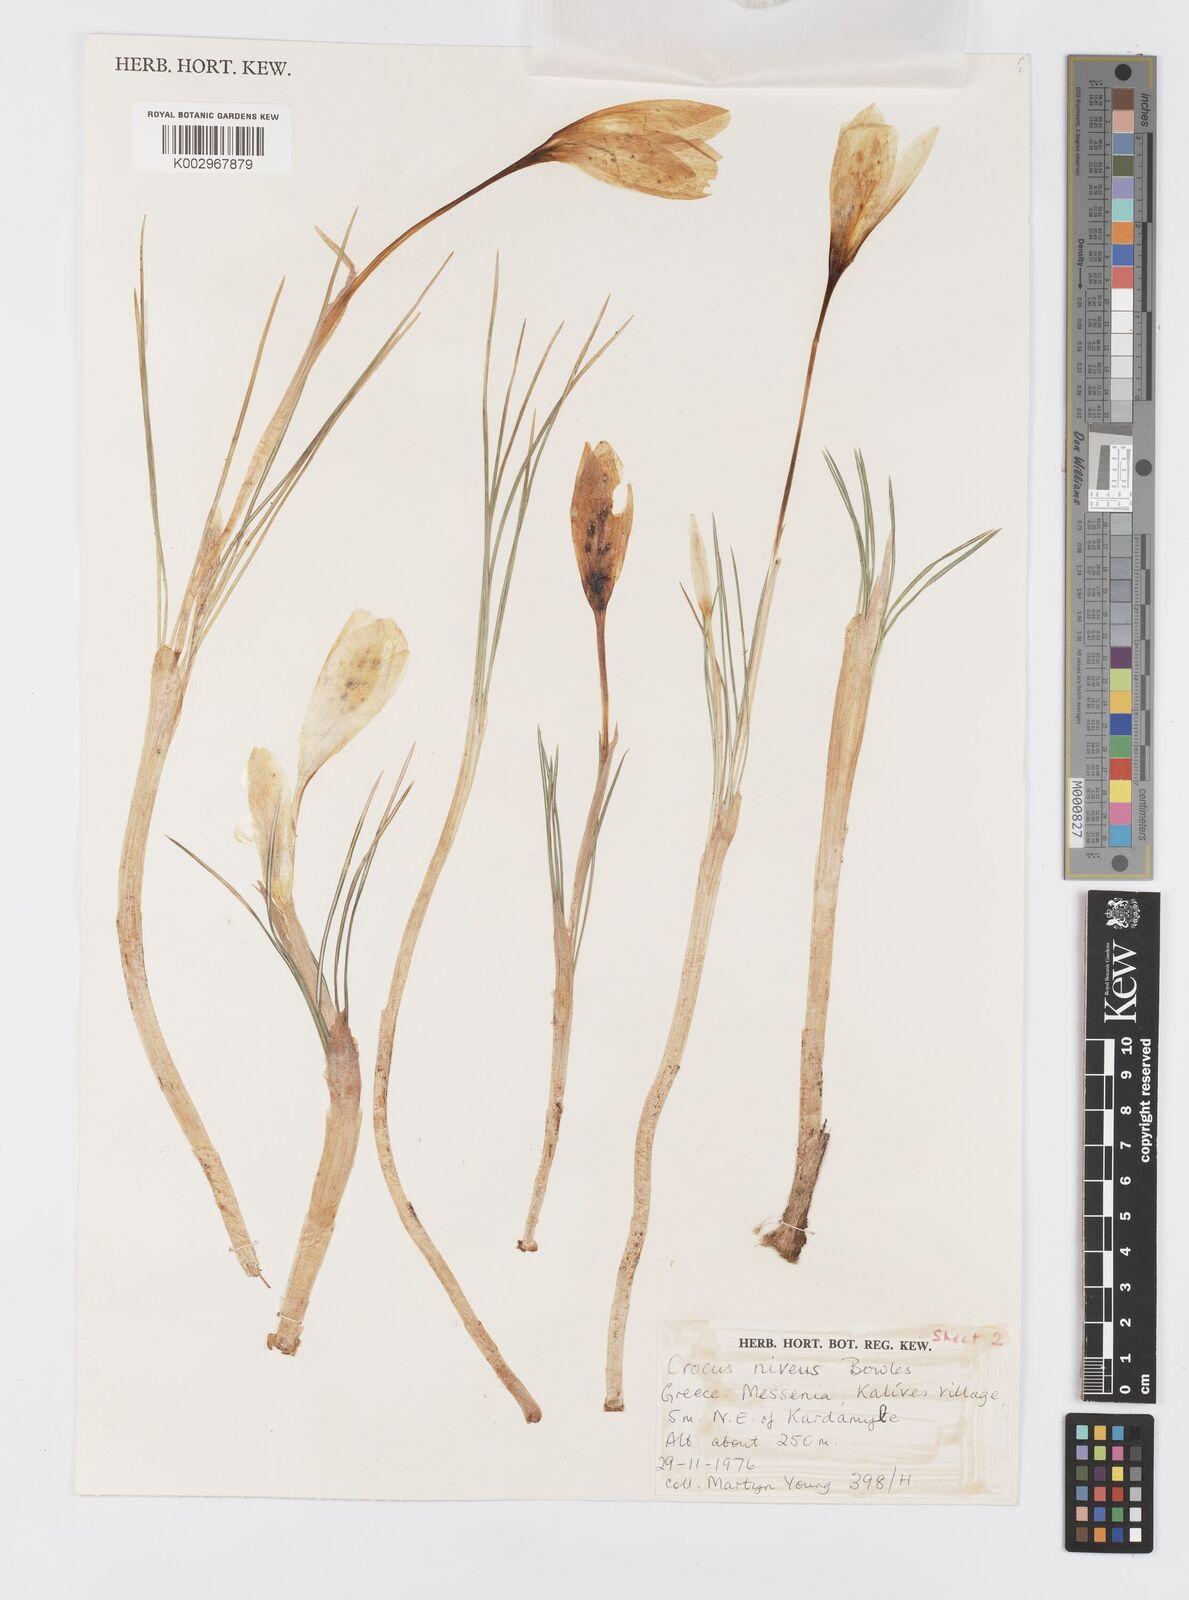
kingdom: Plantae
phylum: Tracheophyta
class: Liliopsida
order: Asparagales
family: Iridaceae
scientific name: Iridaceae
